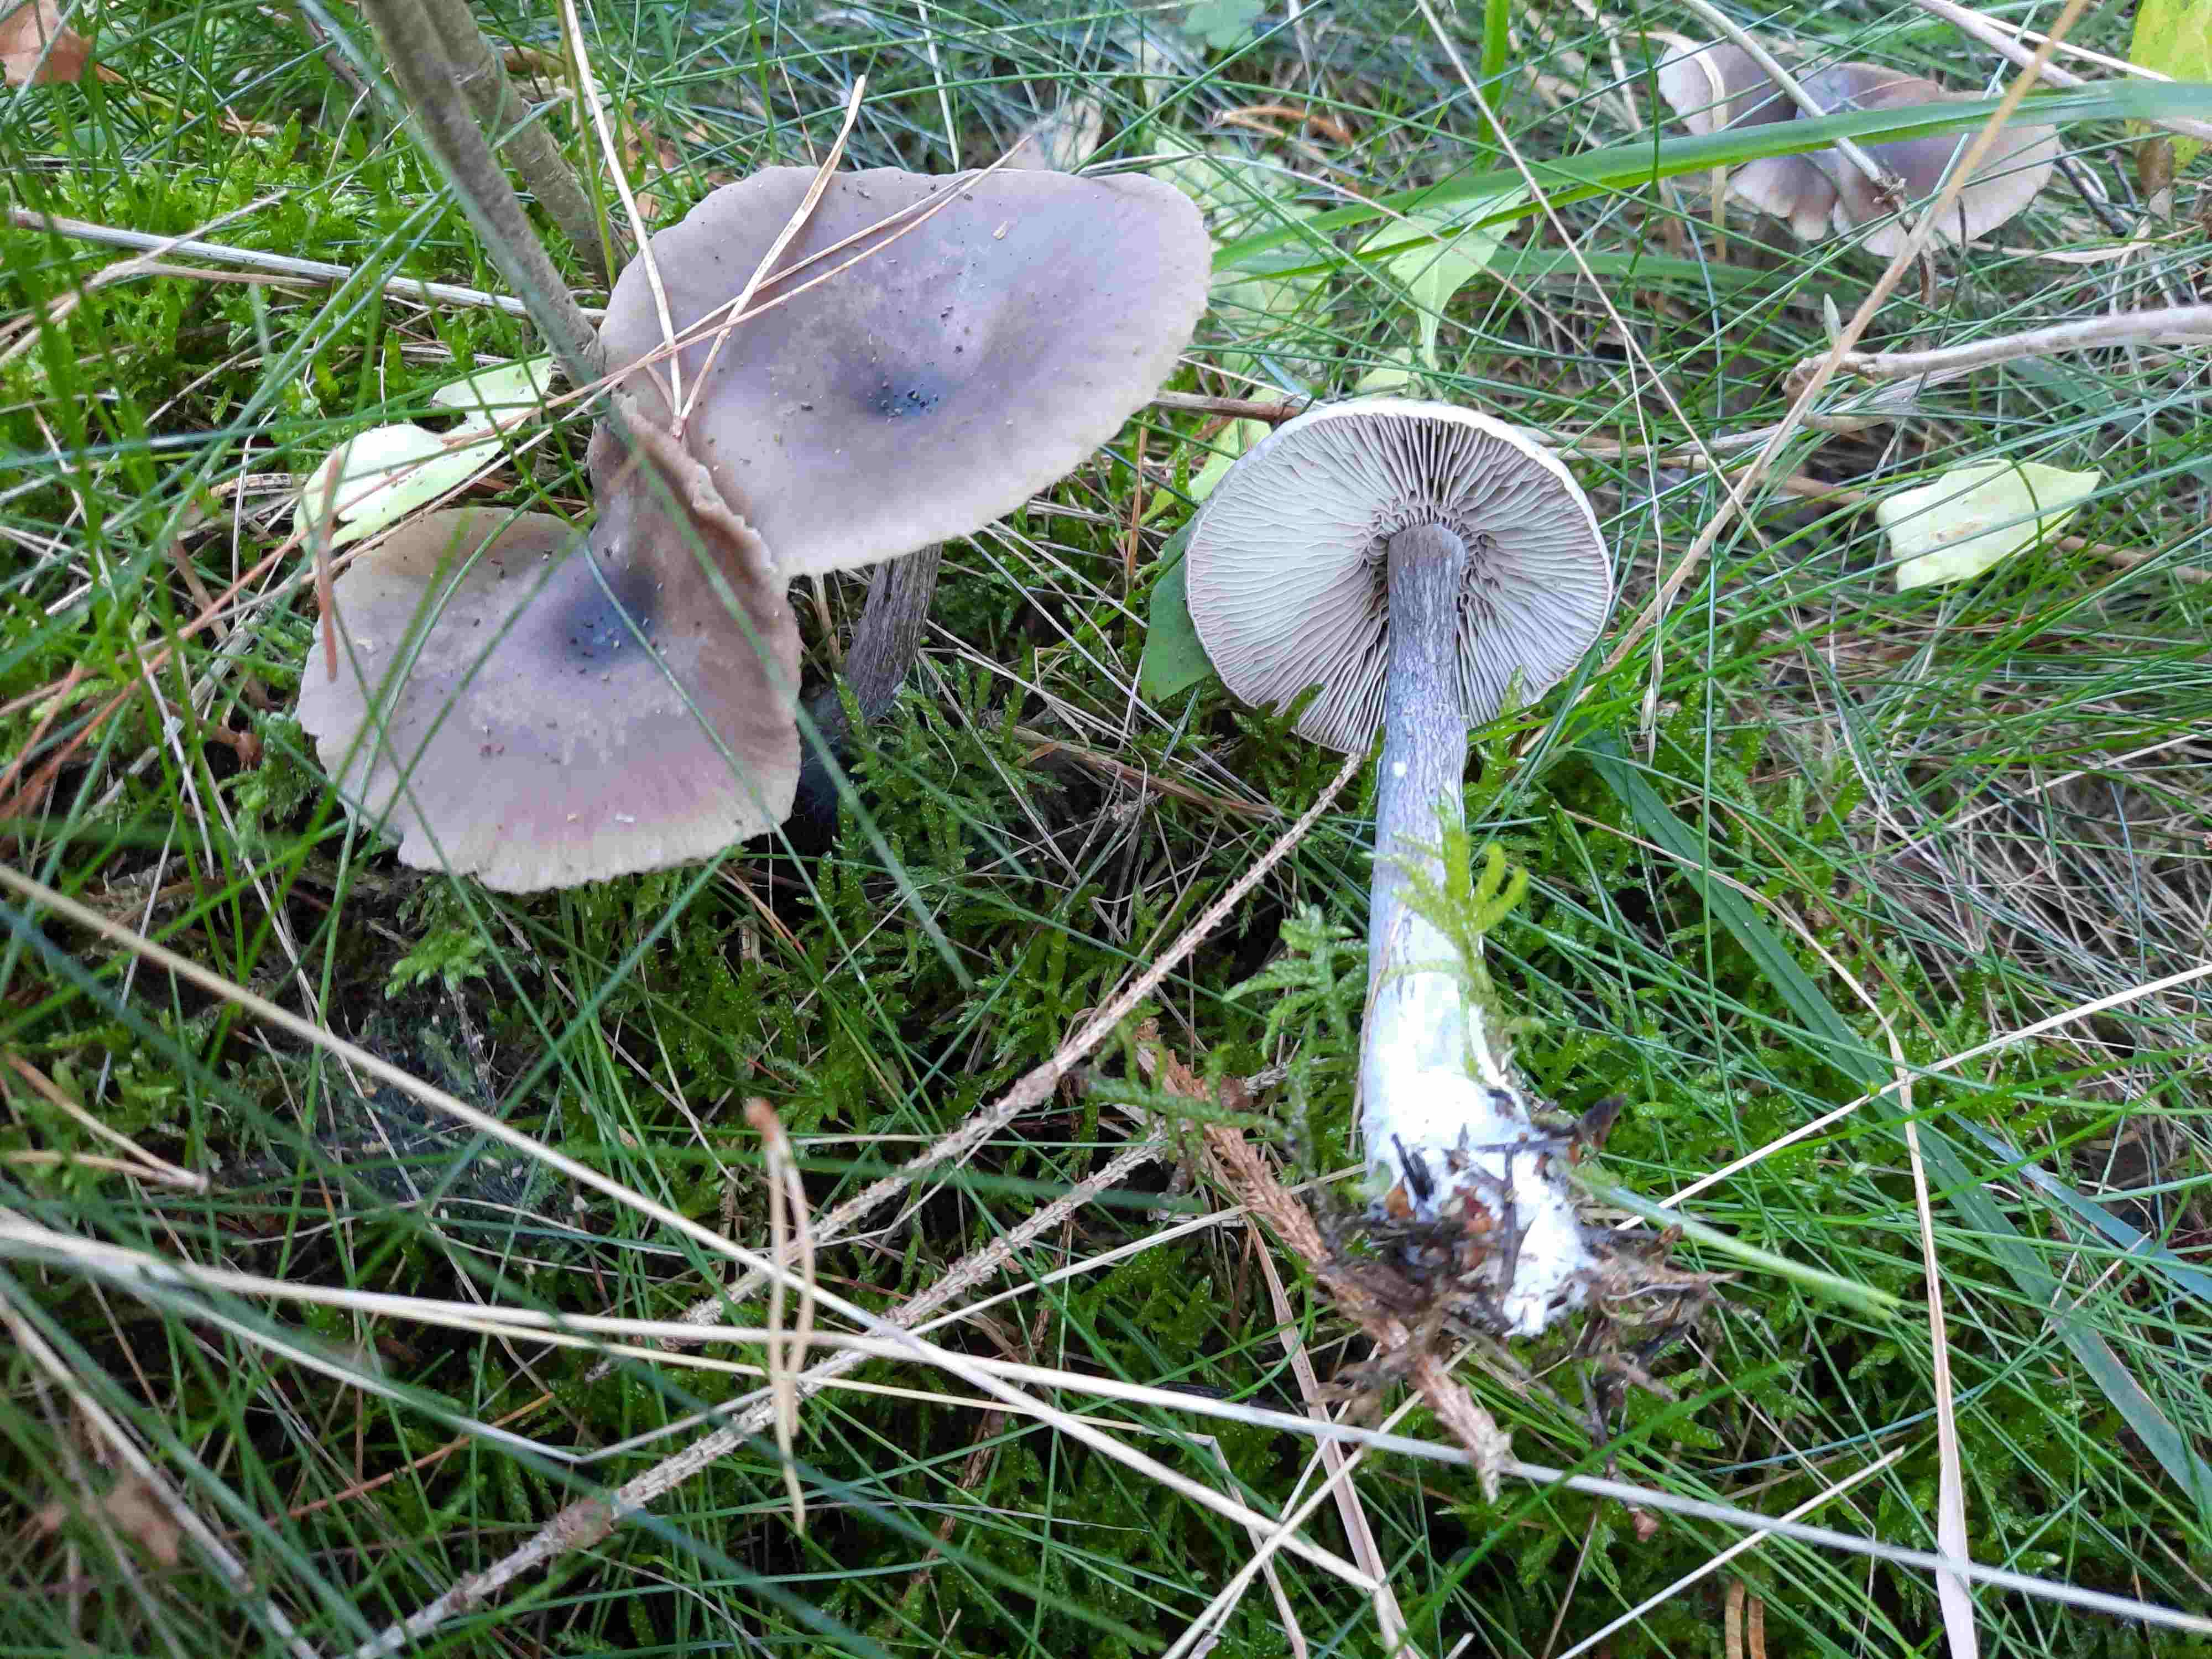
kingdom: Fungi
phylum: Basidiomycota
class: Agaricomycetes
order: Agaricales
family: Pseudoclitocybaceae
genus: Pseudoclitocybe
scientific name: Pseudoclitocybe cyathiformis
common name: almindelig bægertragthat
